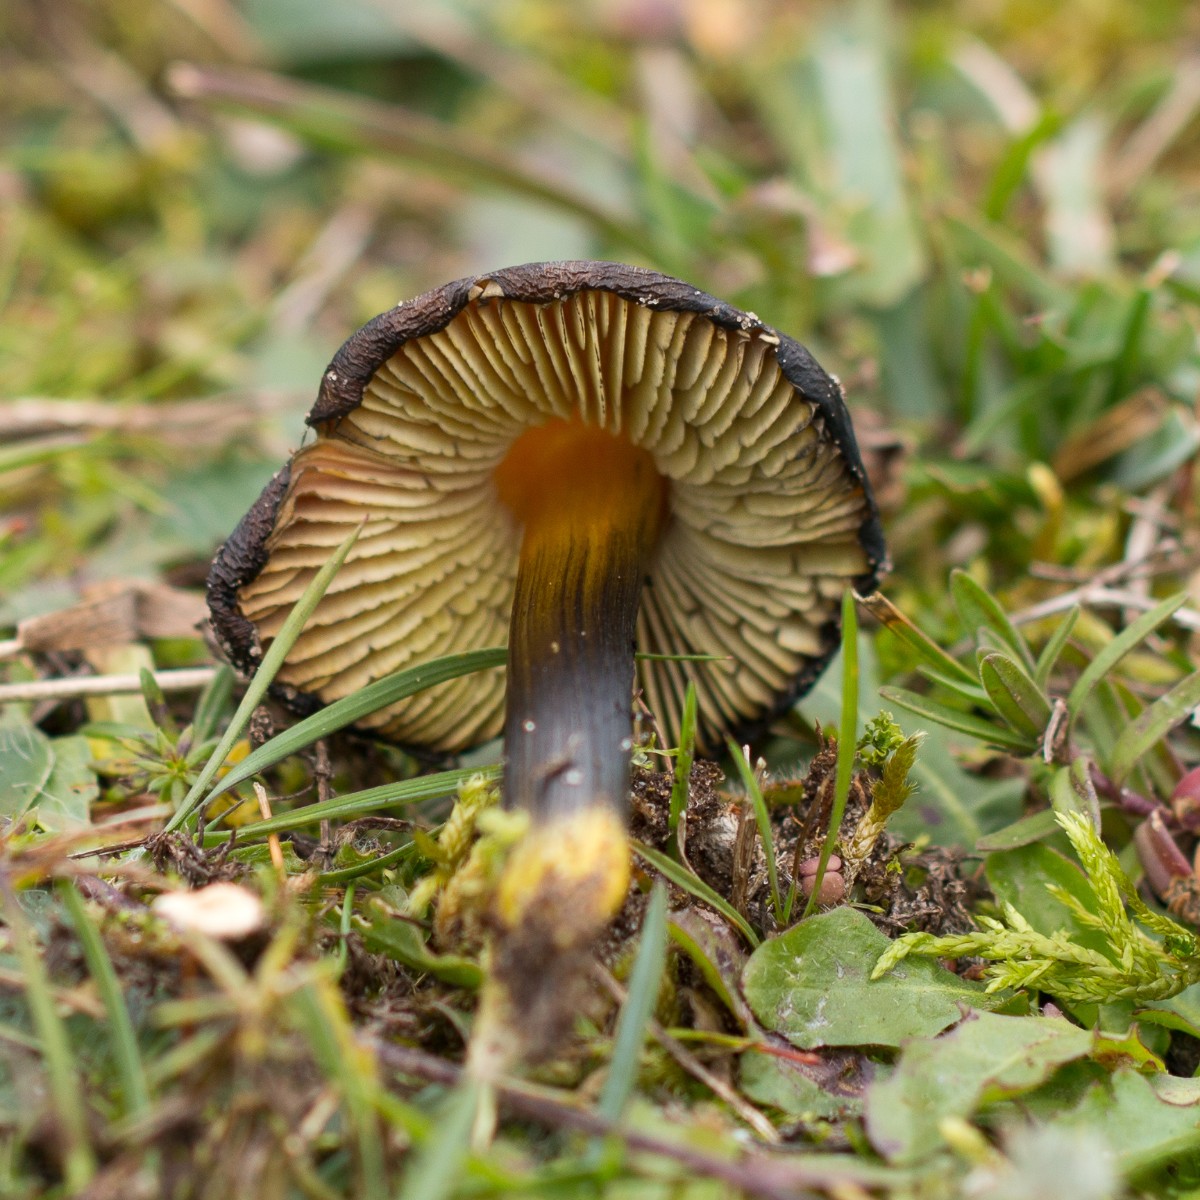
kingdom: Fungi
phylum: Basidiomycota
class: Agaricomycetes
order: Agaricales
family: Hygrophoraceae
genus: Hygrocybe
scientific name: Hygrocybe conica
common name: kegle-vokshat
